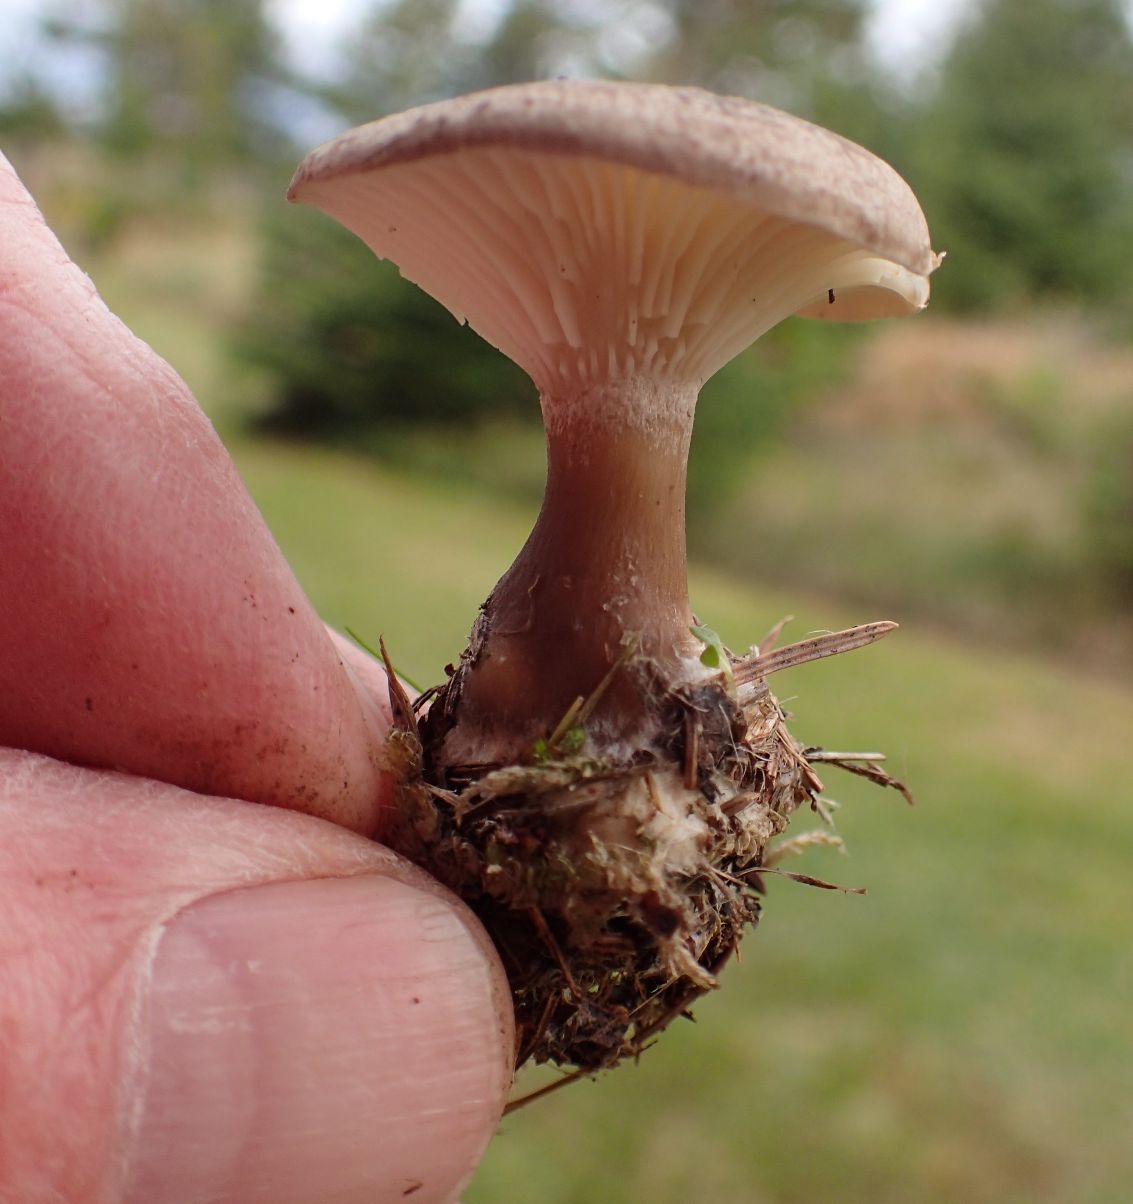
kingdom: Fungi
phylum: Basidiomycota
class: Agaricomycetes
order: Agaricales
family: Hygrophoraceae
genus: Ampulloclitocybe
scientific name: Ampulloclitocybe clavipes
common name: køllefod
